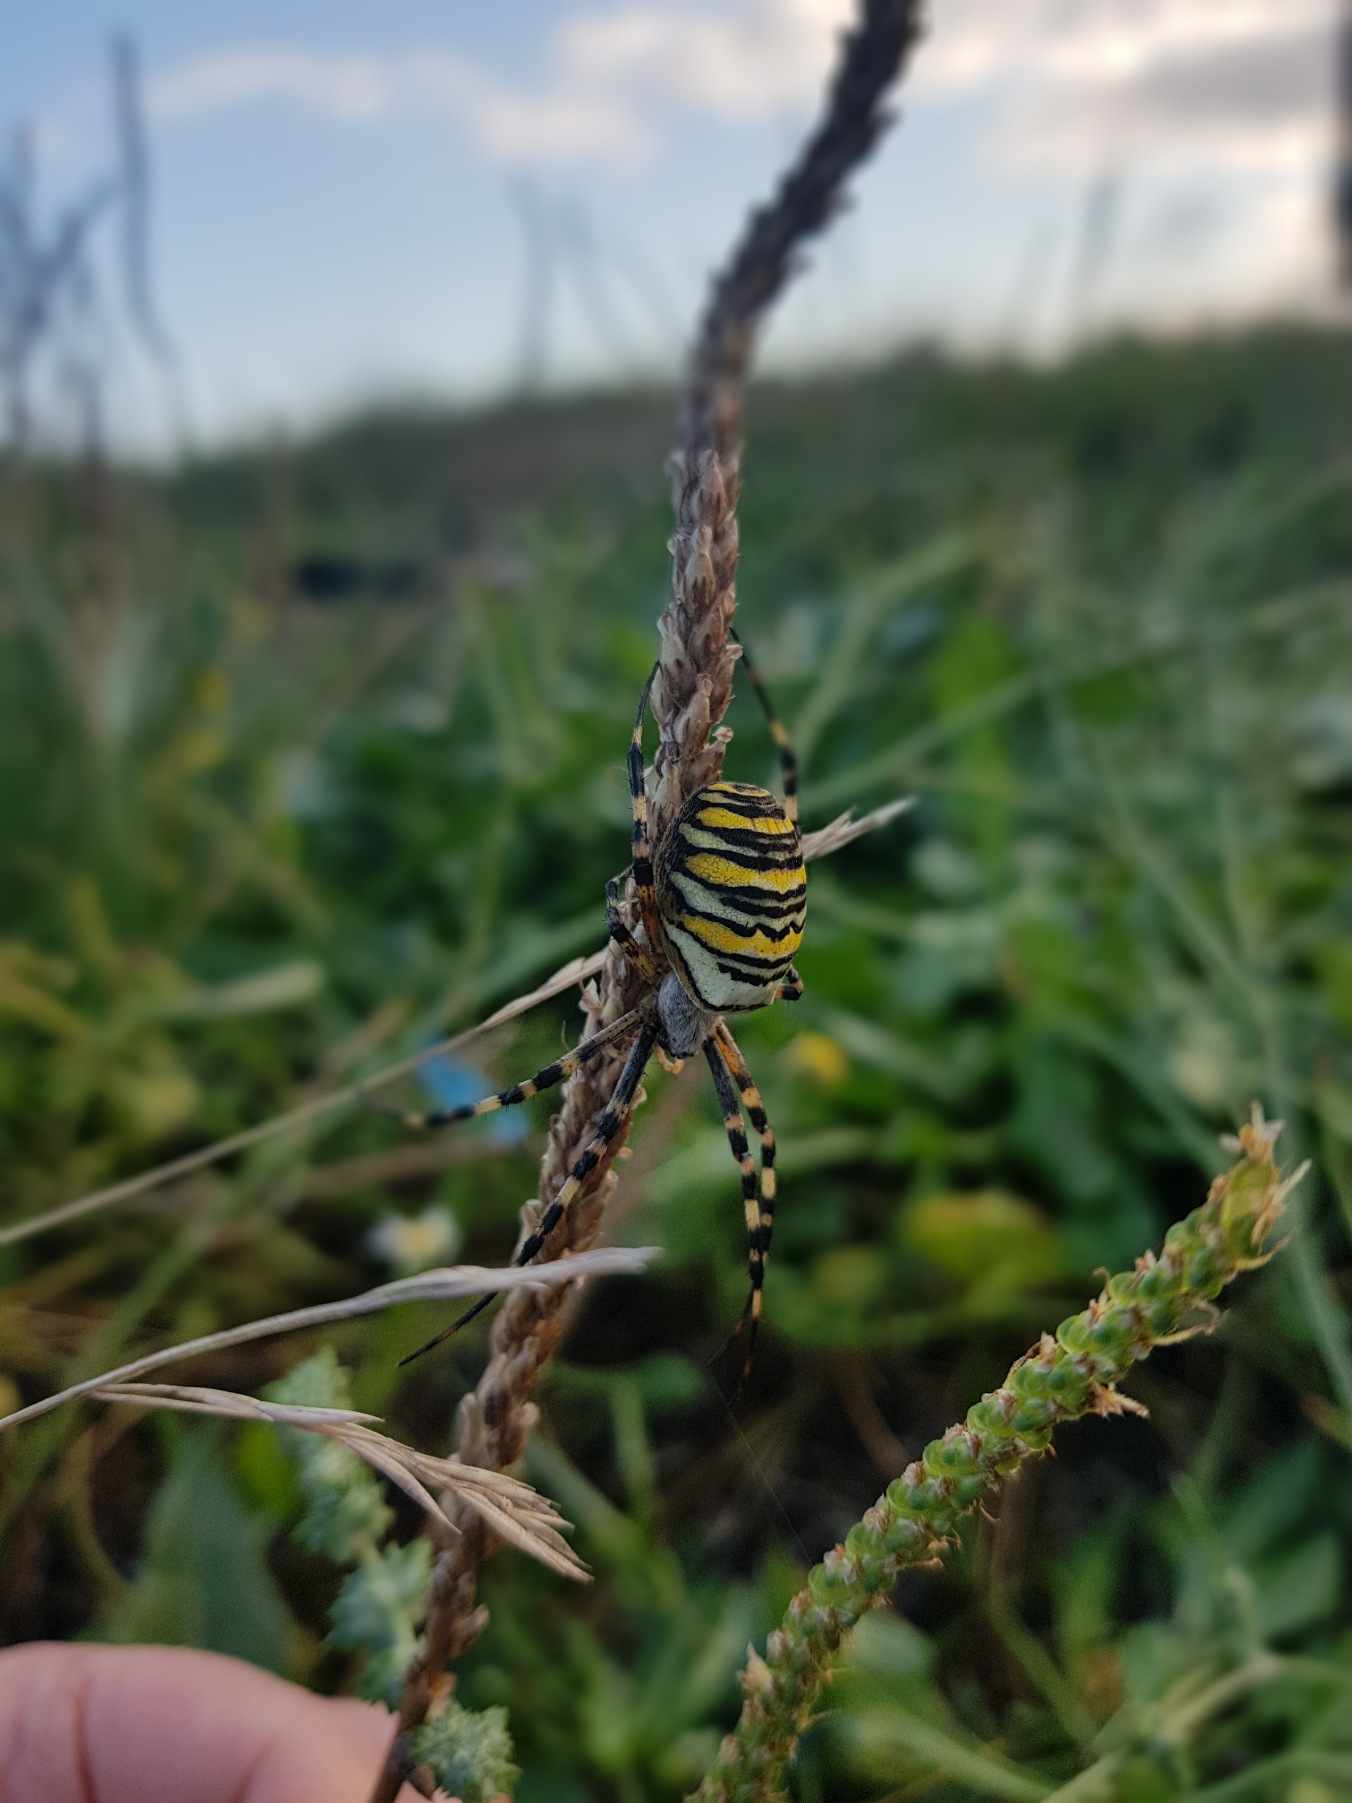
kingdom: Animalia
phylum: Arthropoda
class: Arachnida
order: Araneae
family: Araneidae
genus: Argiope
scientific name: Argiope bruennichi
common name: Hvepseedderkop
